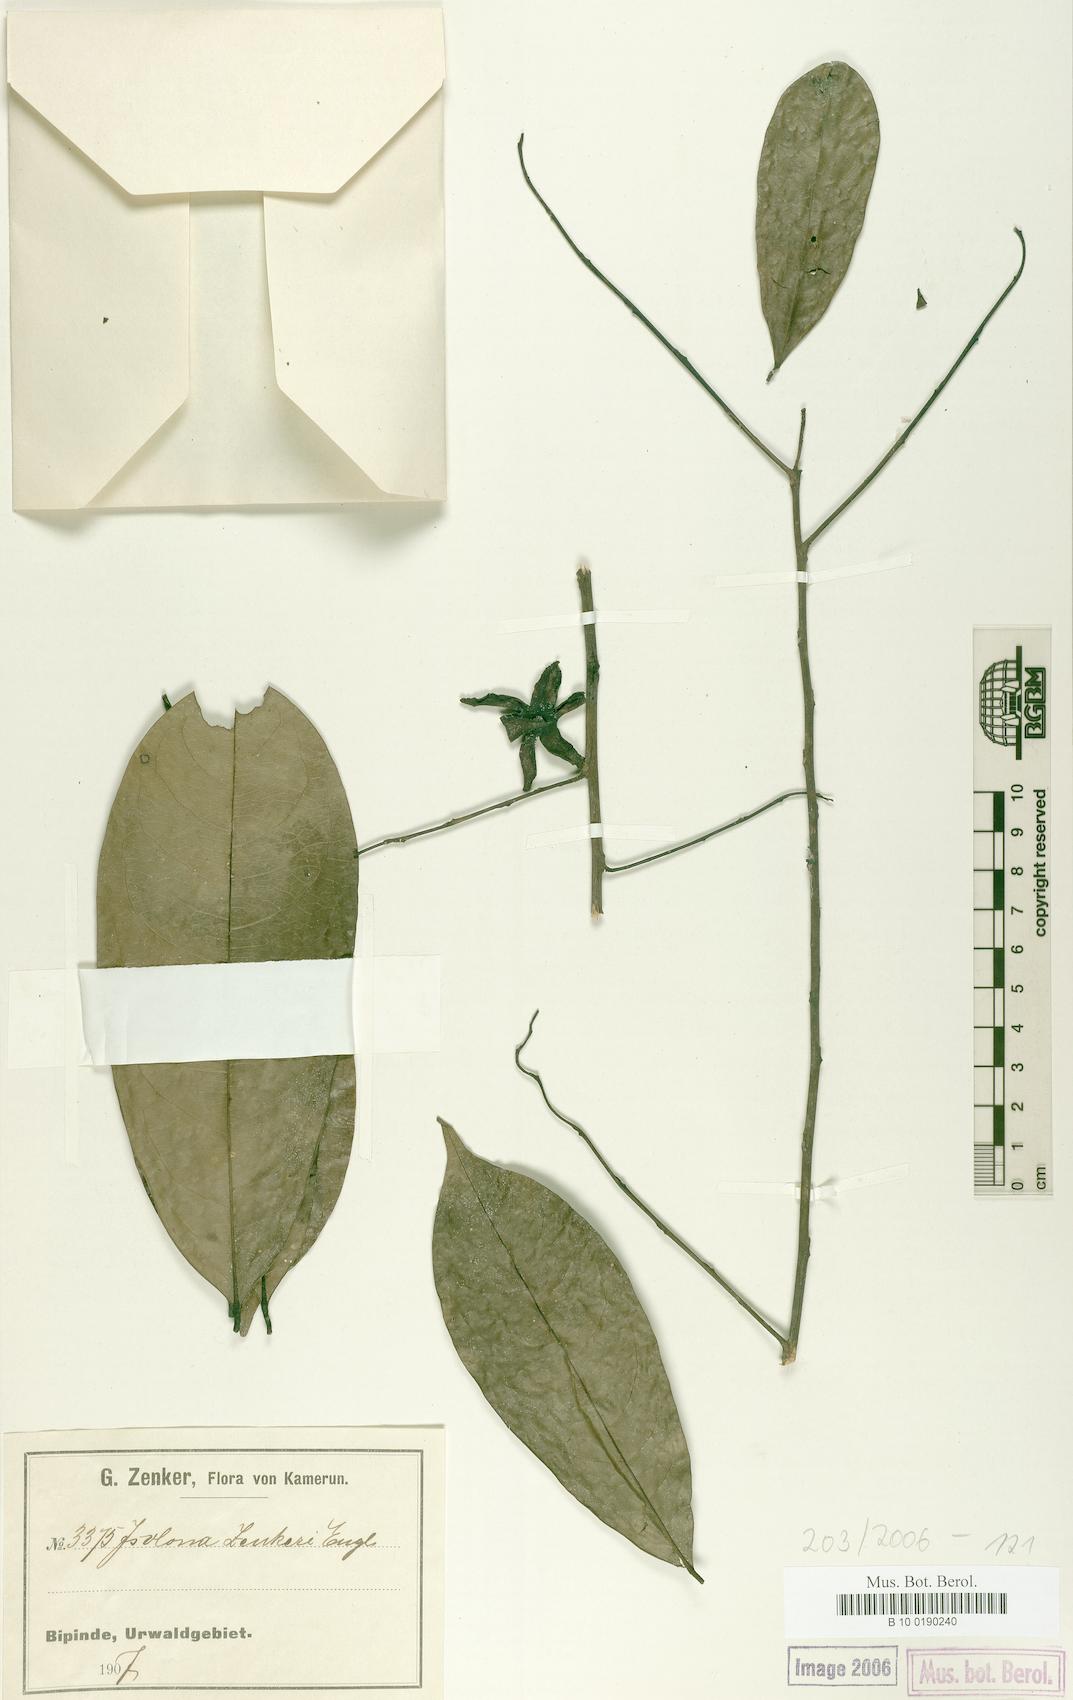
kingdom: Plantae
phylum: Tracheophyta
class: Magnoliopsida
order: Magnoliales
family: Annonaceae
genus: Isolona
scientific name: Isolona zenkeri
